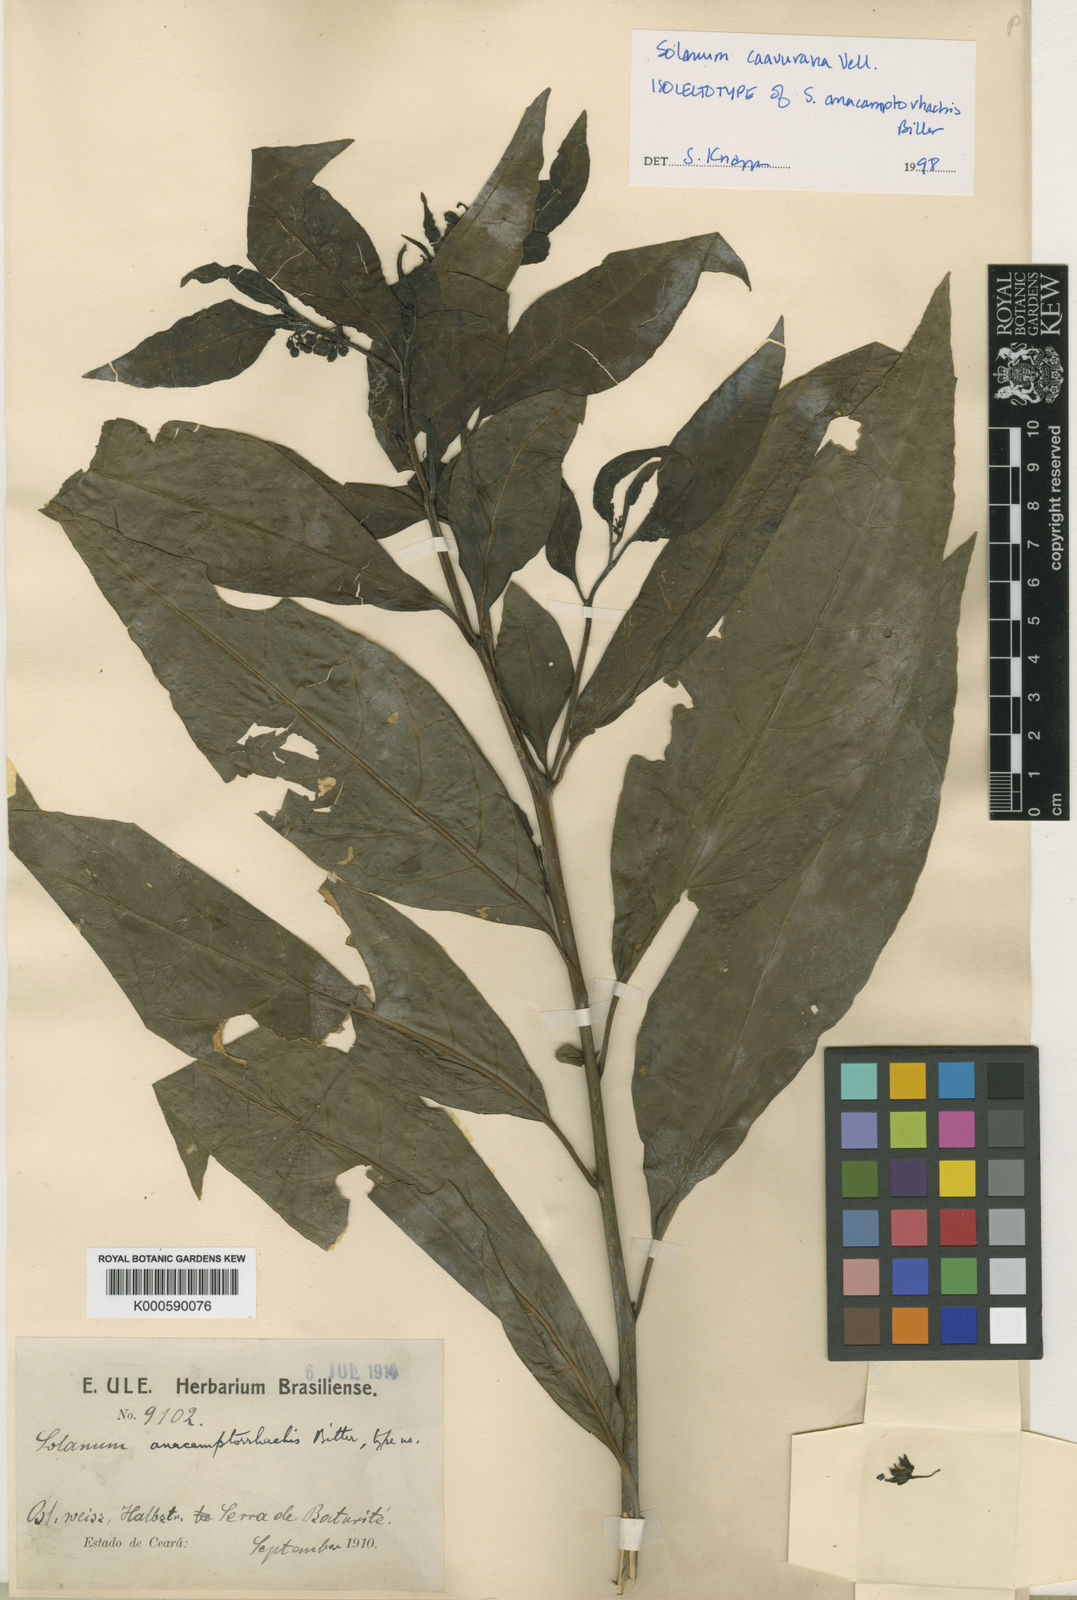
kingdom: Plantae
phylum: Tracheophyta
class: Magnoliopsida
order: Solanales
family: Solanaceae
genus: Solanum
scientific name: Solanum caavurana
